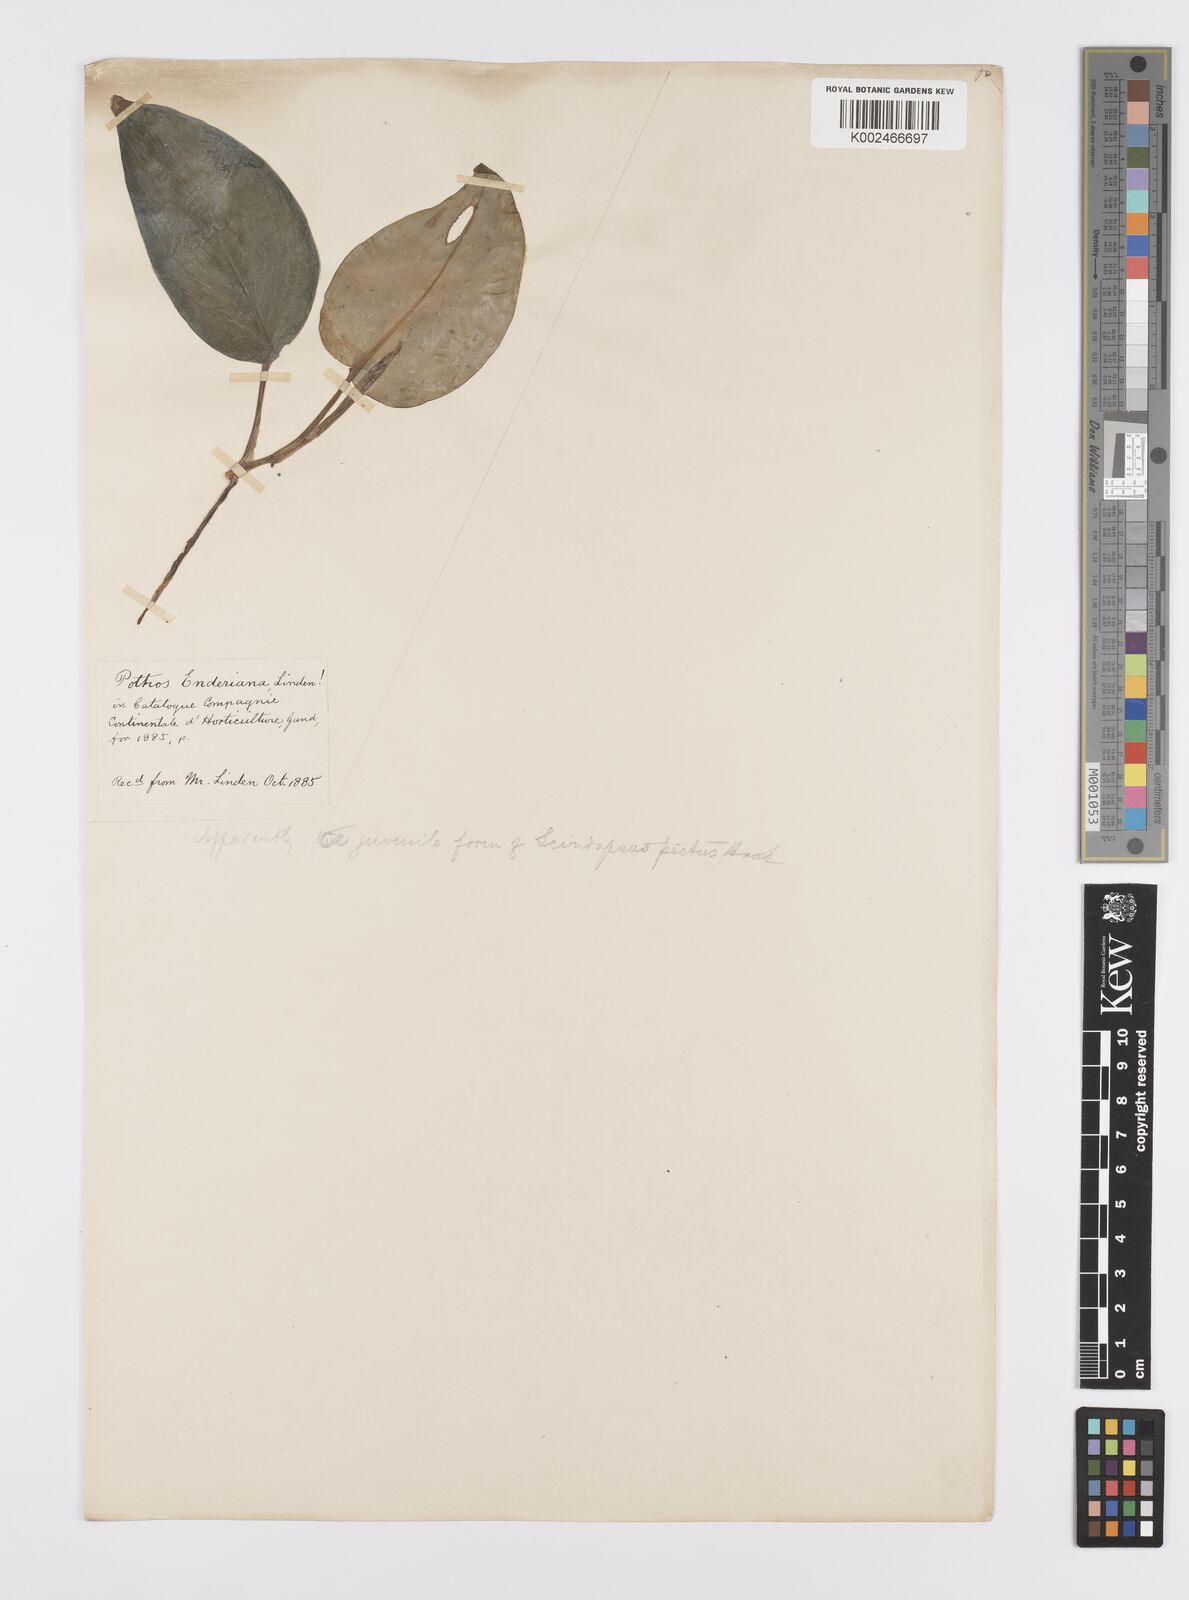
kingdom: Plantae
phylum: Tracheophyta
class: Liliopsida
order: Alismatales
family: Araceae
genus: Scindapsus
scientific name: Scindapsus
